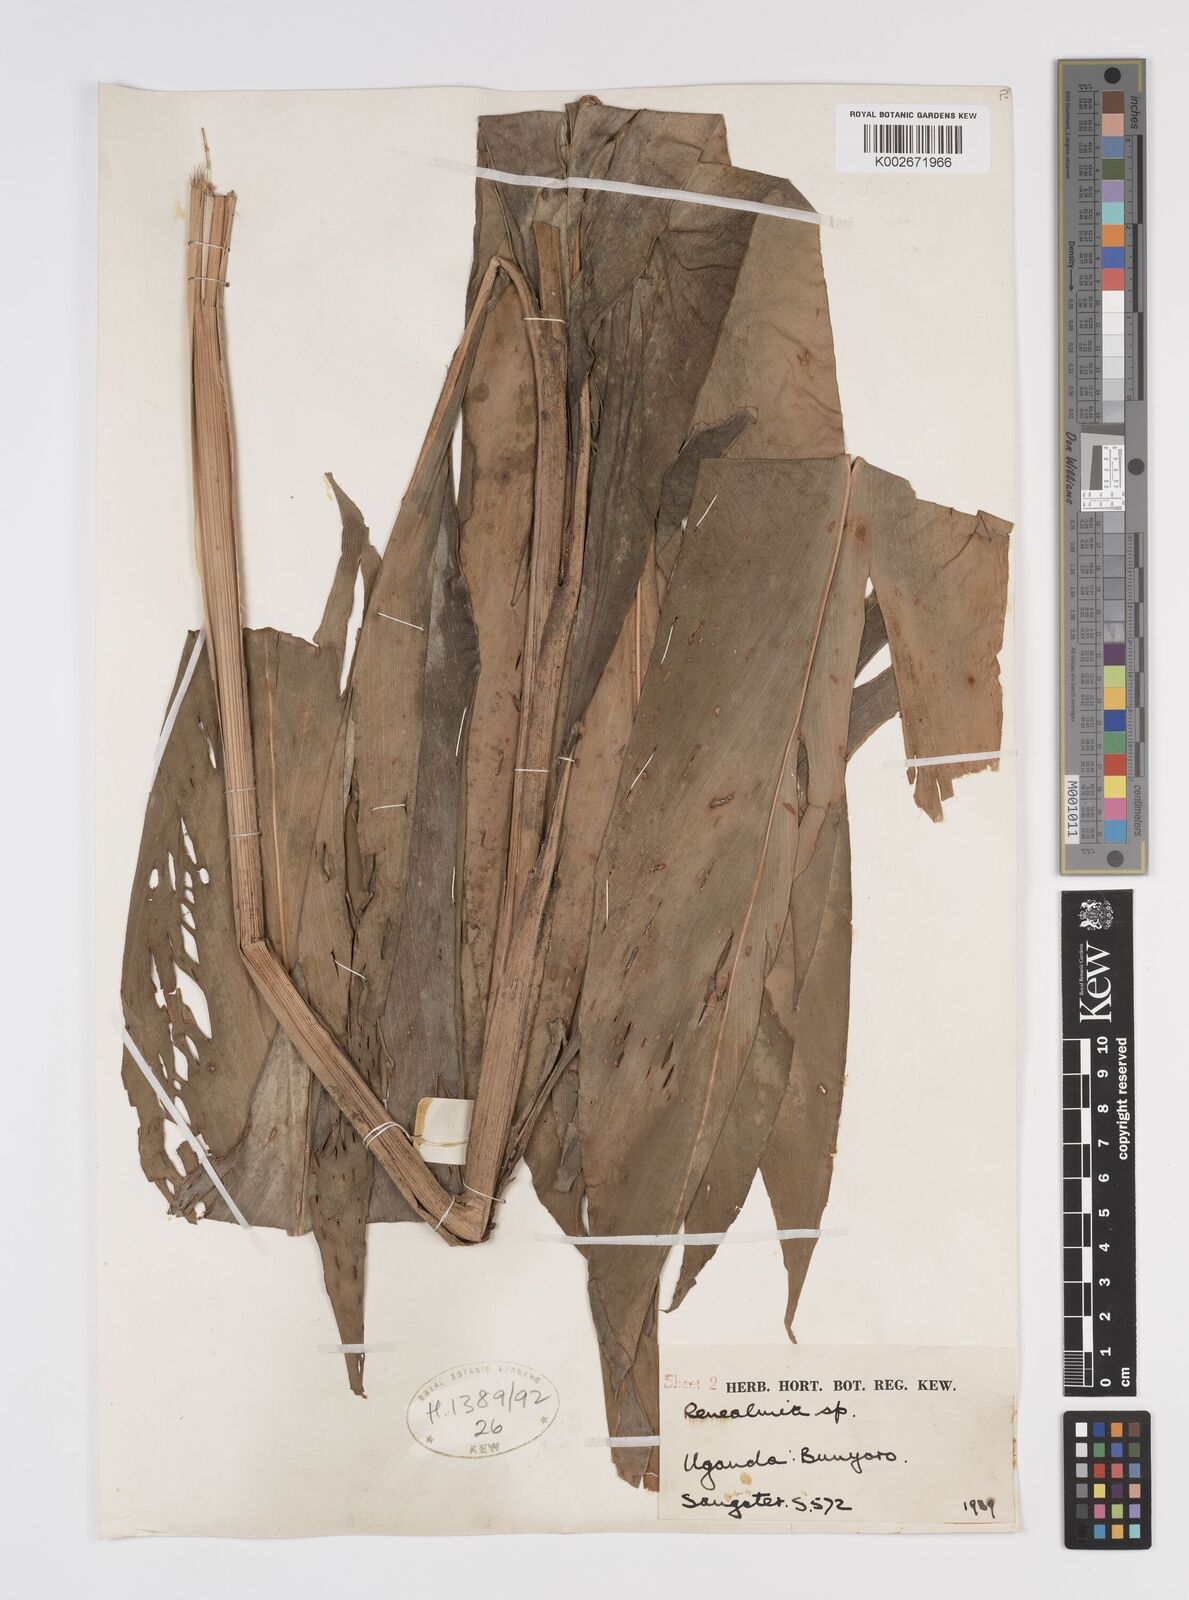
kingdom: Plantae
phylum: Tracheophyta
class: Liliopsida
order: Zingiberales
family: Zingiberaceae
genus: Renealmia
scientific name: Renealmia bracteata
